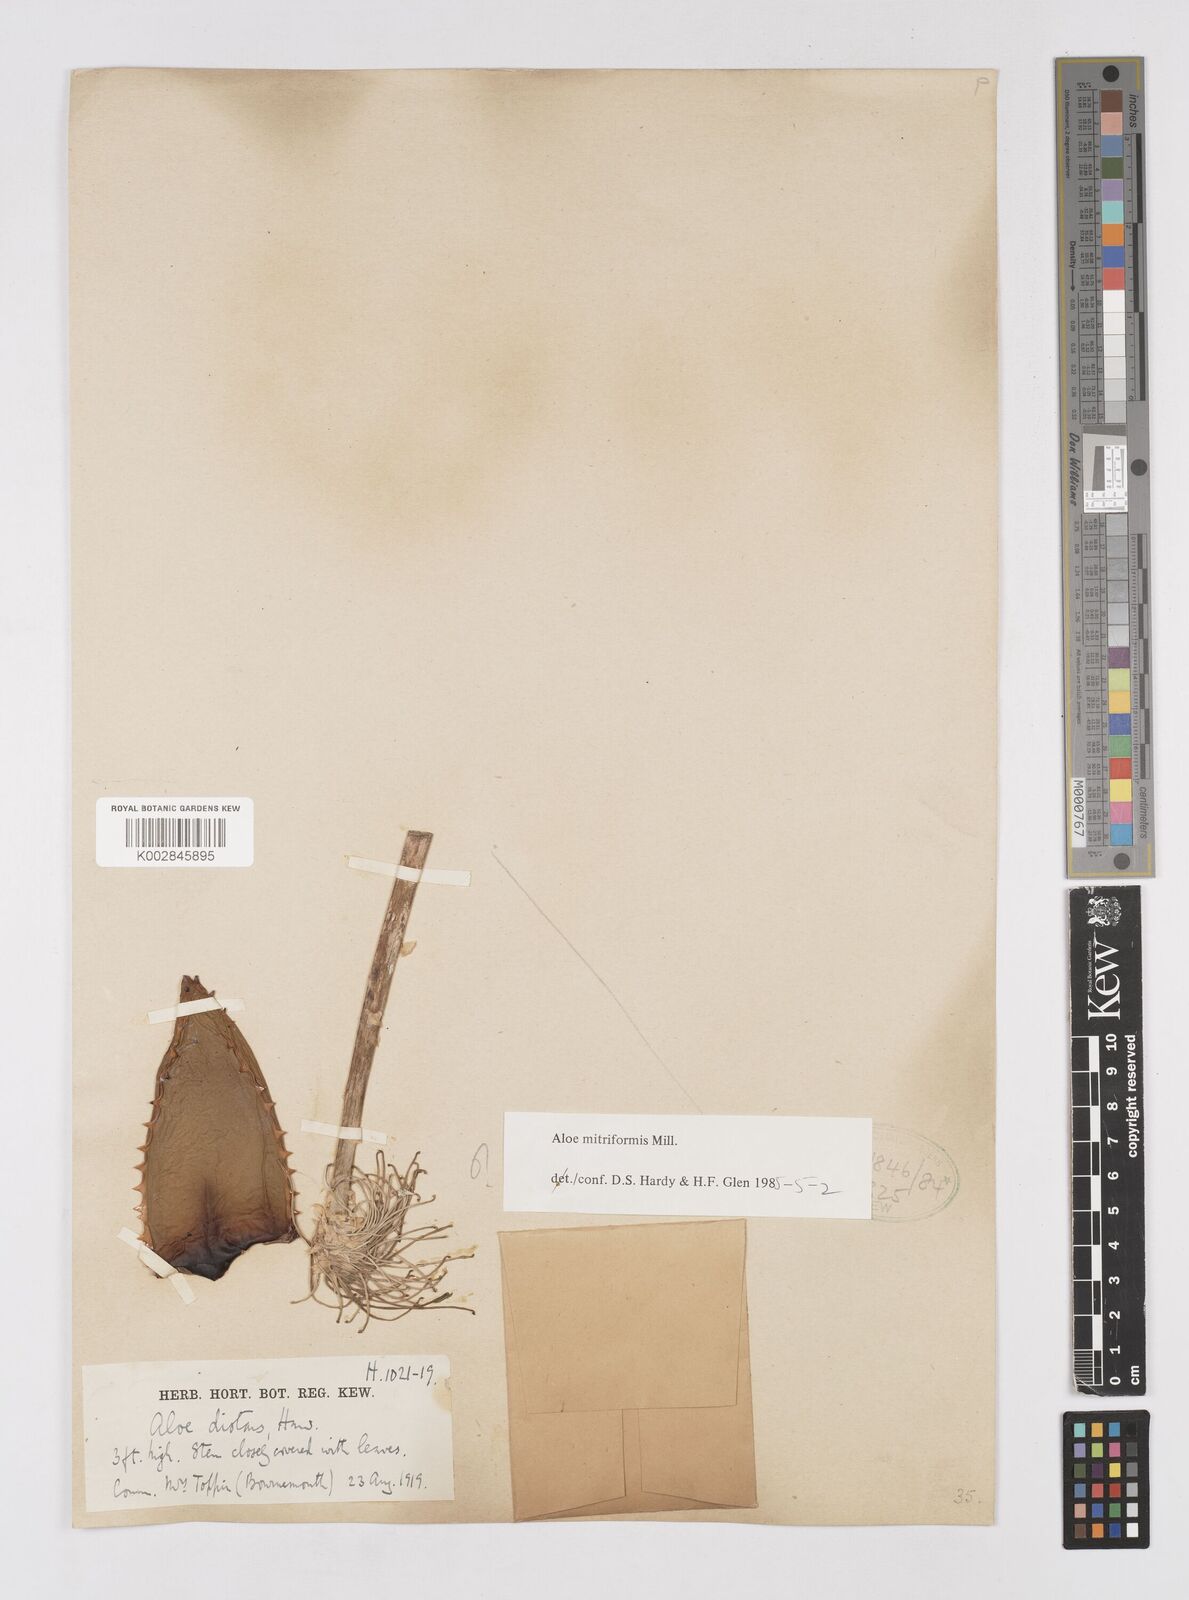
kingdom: Plantae
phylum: Tracheophyta
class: Liliopsida
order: Asparagales
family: Asphodelaceae
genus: Aloe
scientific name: Aloe perfoliata
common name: Mitra aloe
